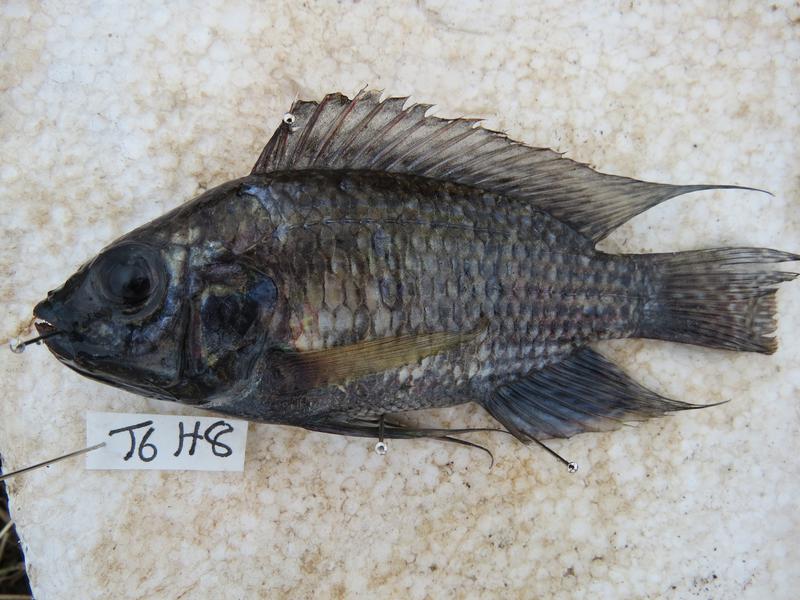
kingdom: Animalia
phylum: Chordata
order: Perciformes
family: Cichlidae
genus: Oreochromis
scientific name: Oreochromis leucostictus
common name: Blue spotted tilapia
